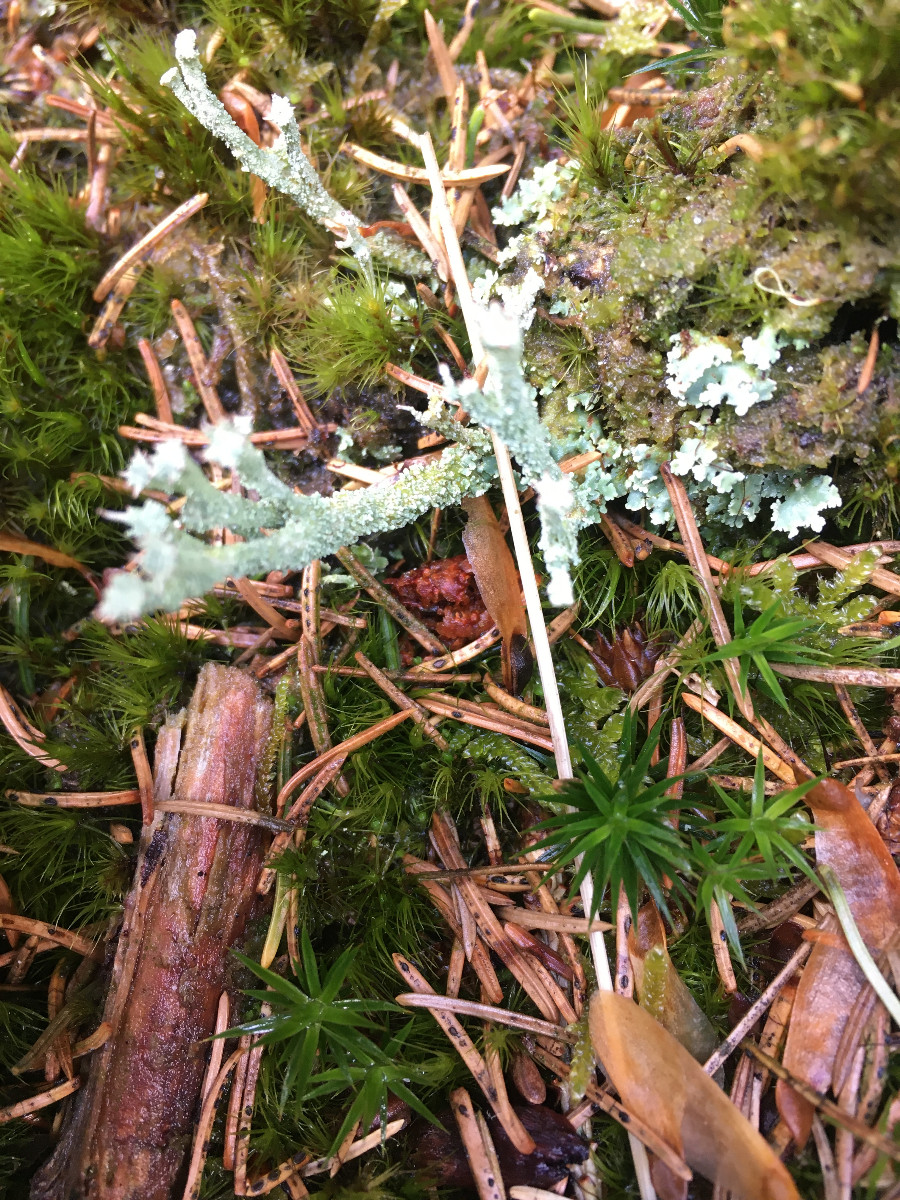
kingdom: Fungi
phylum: Ascomycota
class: Lecanoromycetes
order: Lecanorales
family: Cladoniaceae
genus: Cladonia
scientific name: Cladonia polydactyla
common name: vifte-bægerlav
